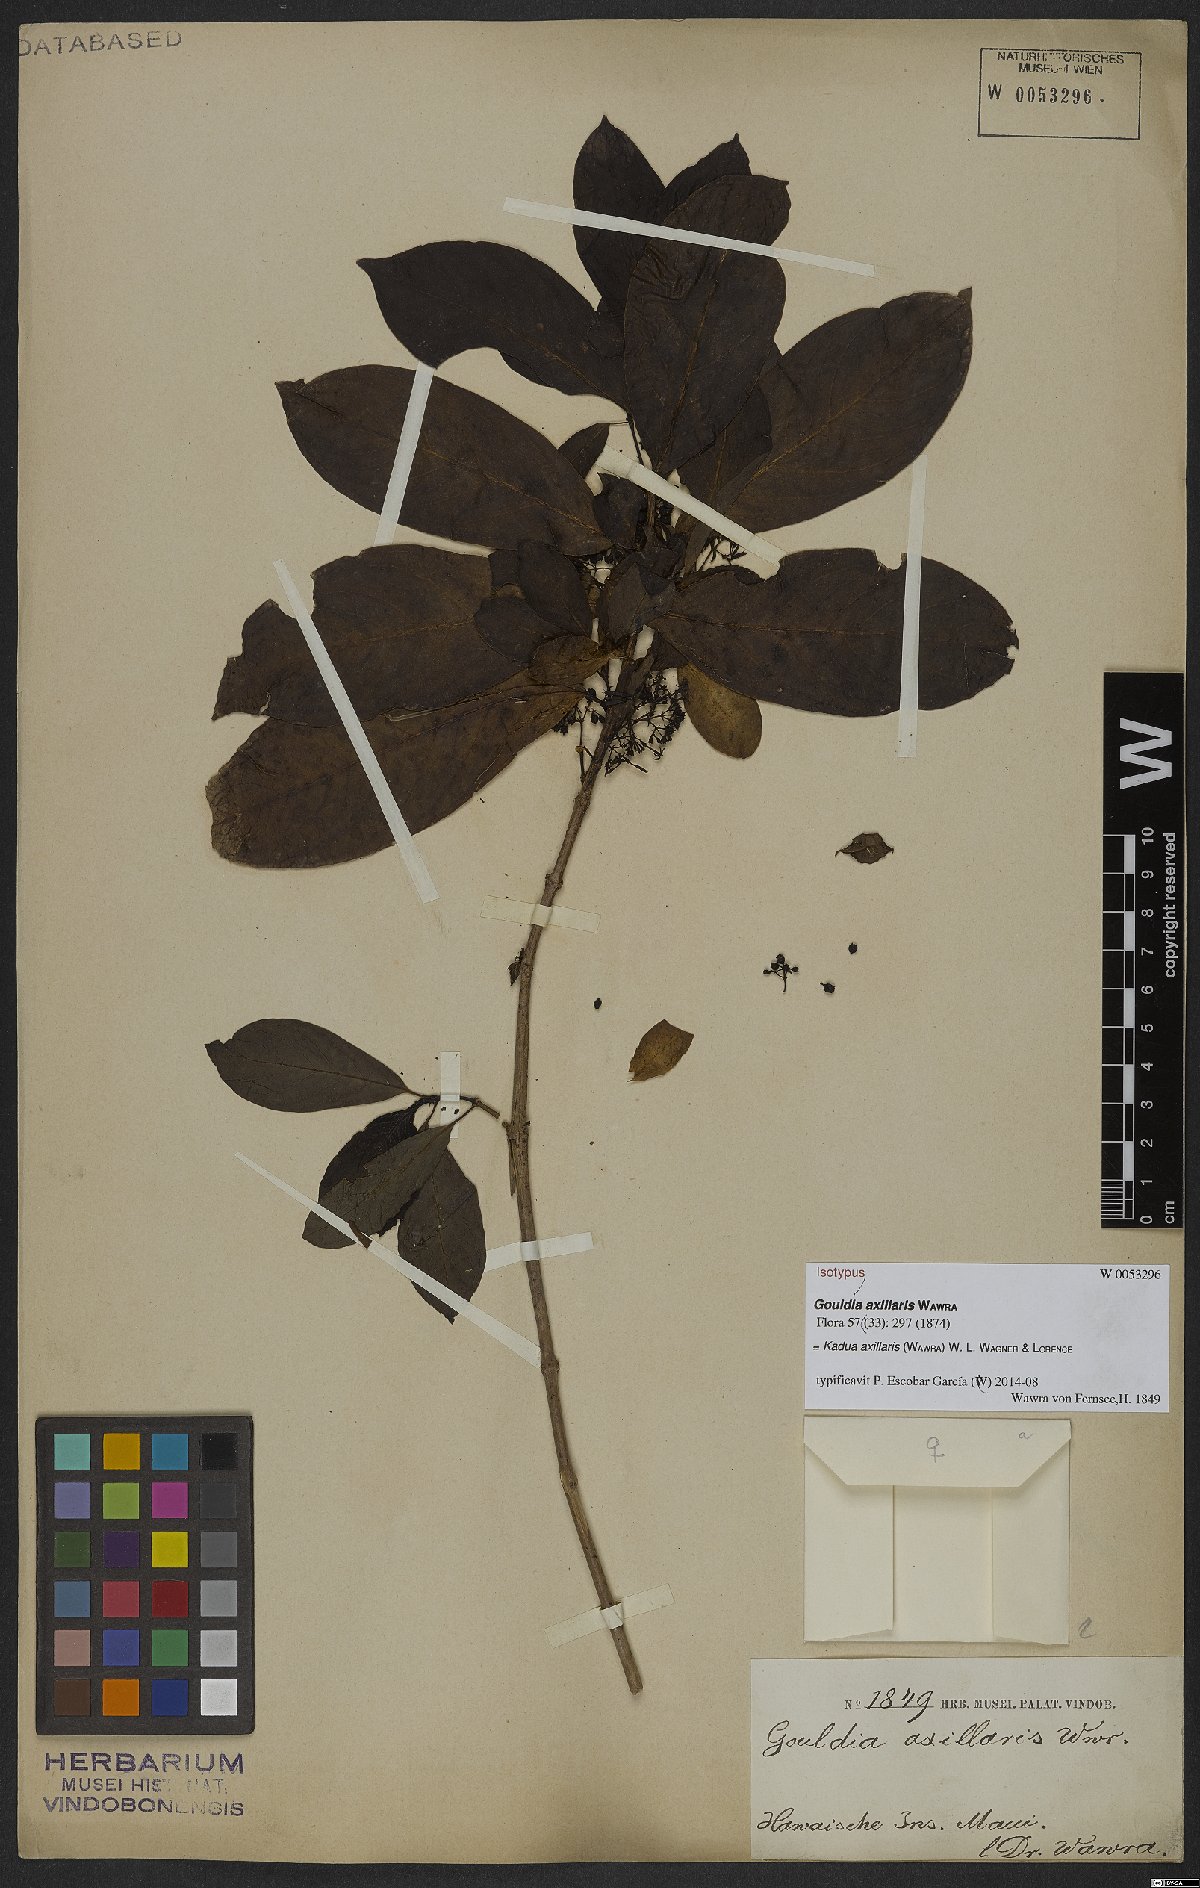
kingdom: Plantae
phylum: Tracheophyta
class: Magnoliopsida
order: Gentianales
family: Rubiaceae
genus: Kadua
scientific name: Kadua axillaris
